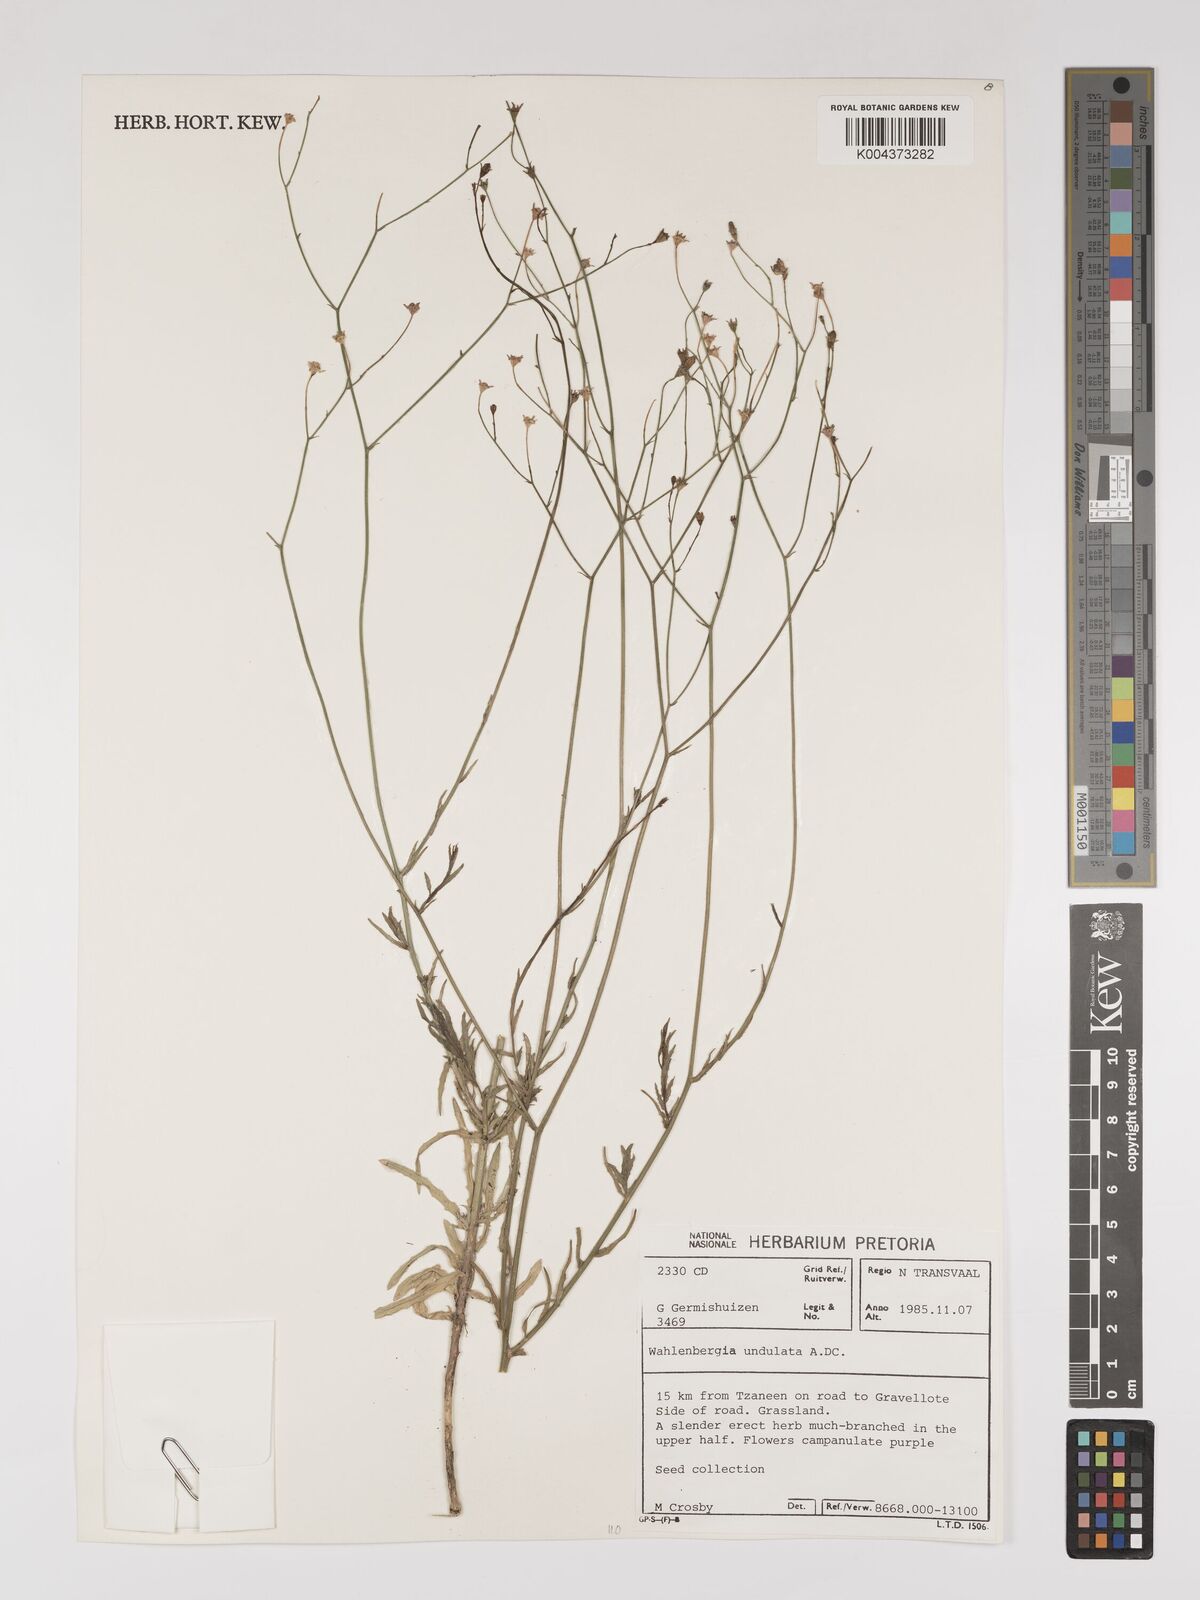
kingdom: Plantae
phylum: Tracheophyta
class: Magnoliopsida
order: Asterales
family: Campanulaceae
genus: Wahlenbergia
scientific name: Wahlenbergia undulata
